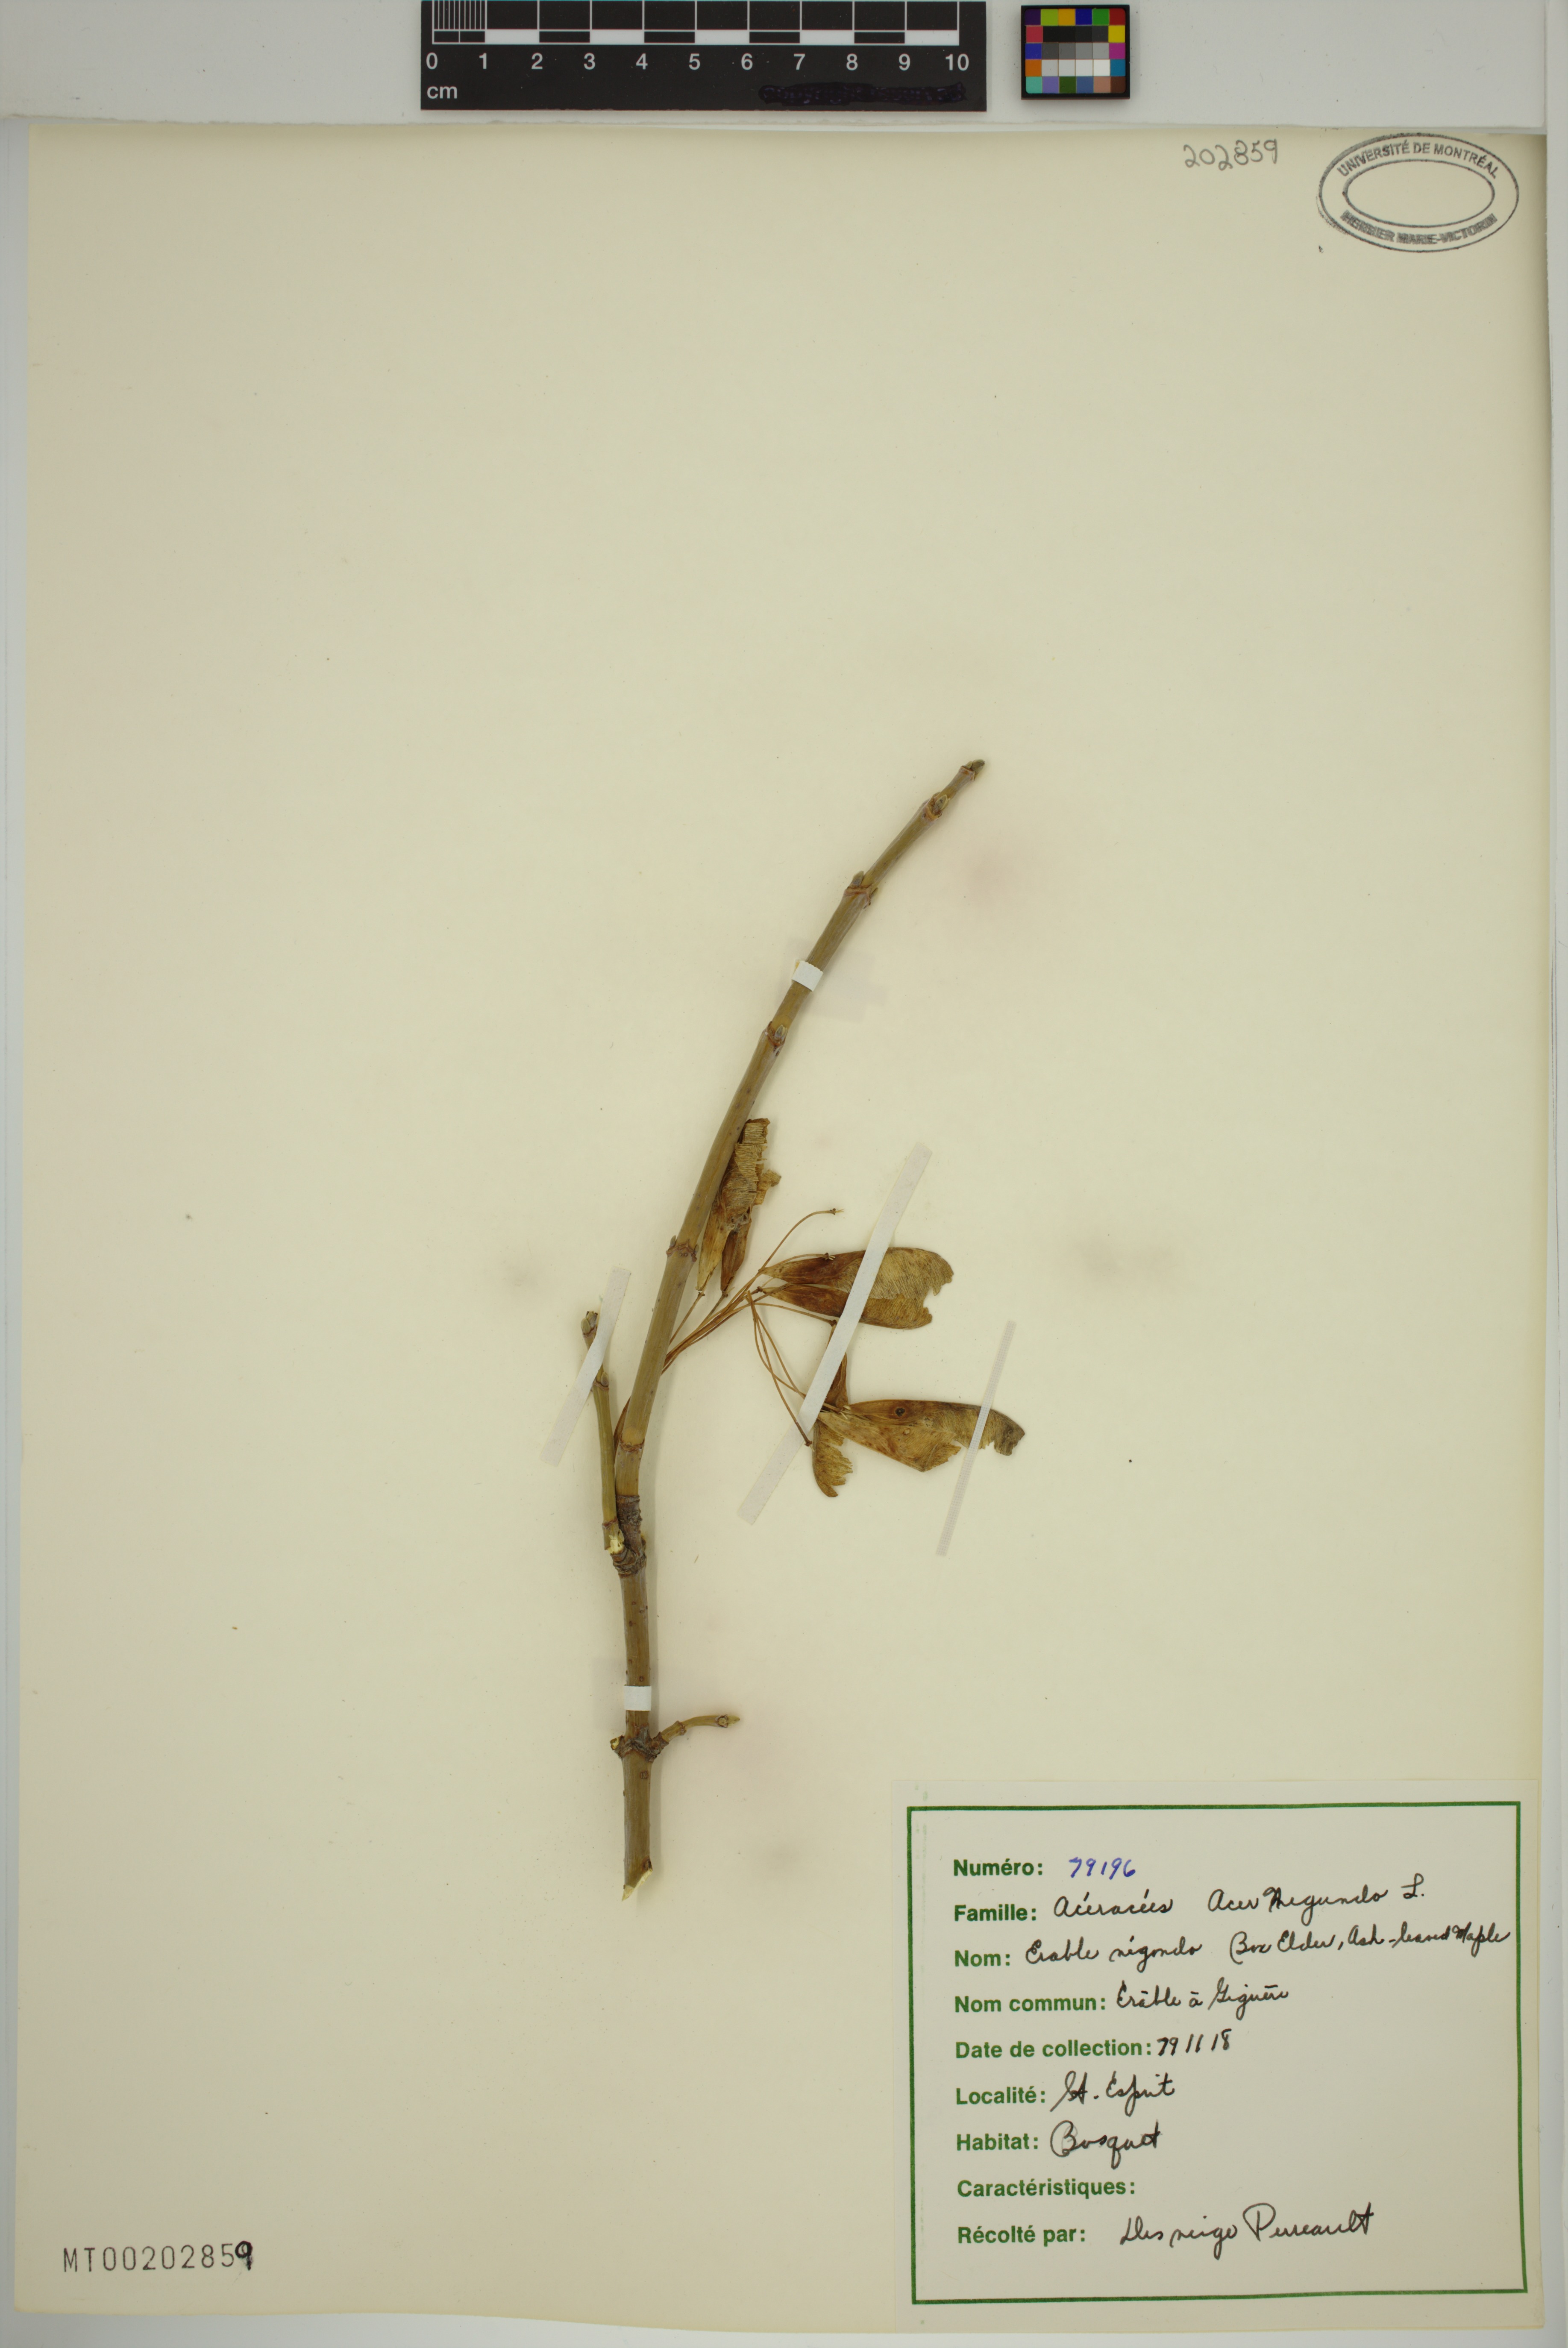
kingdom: Plantae
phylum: Tracheophyta
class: Magnoliopsida
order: Sapindales
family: Sapindaceae
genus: Acer
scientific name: Acer negundo
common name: Ashleaf maple
